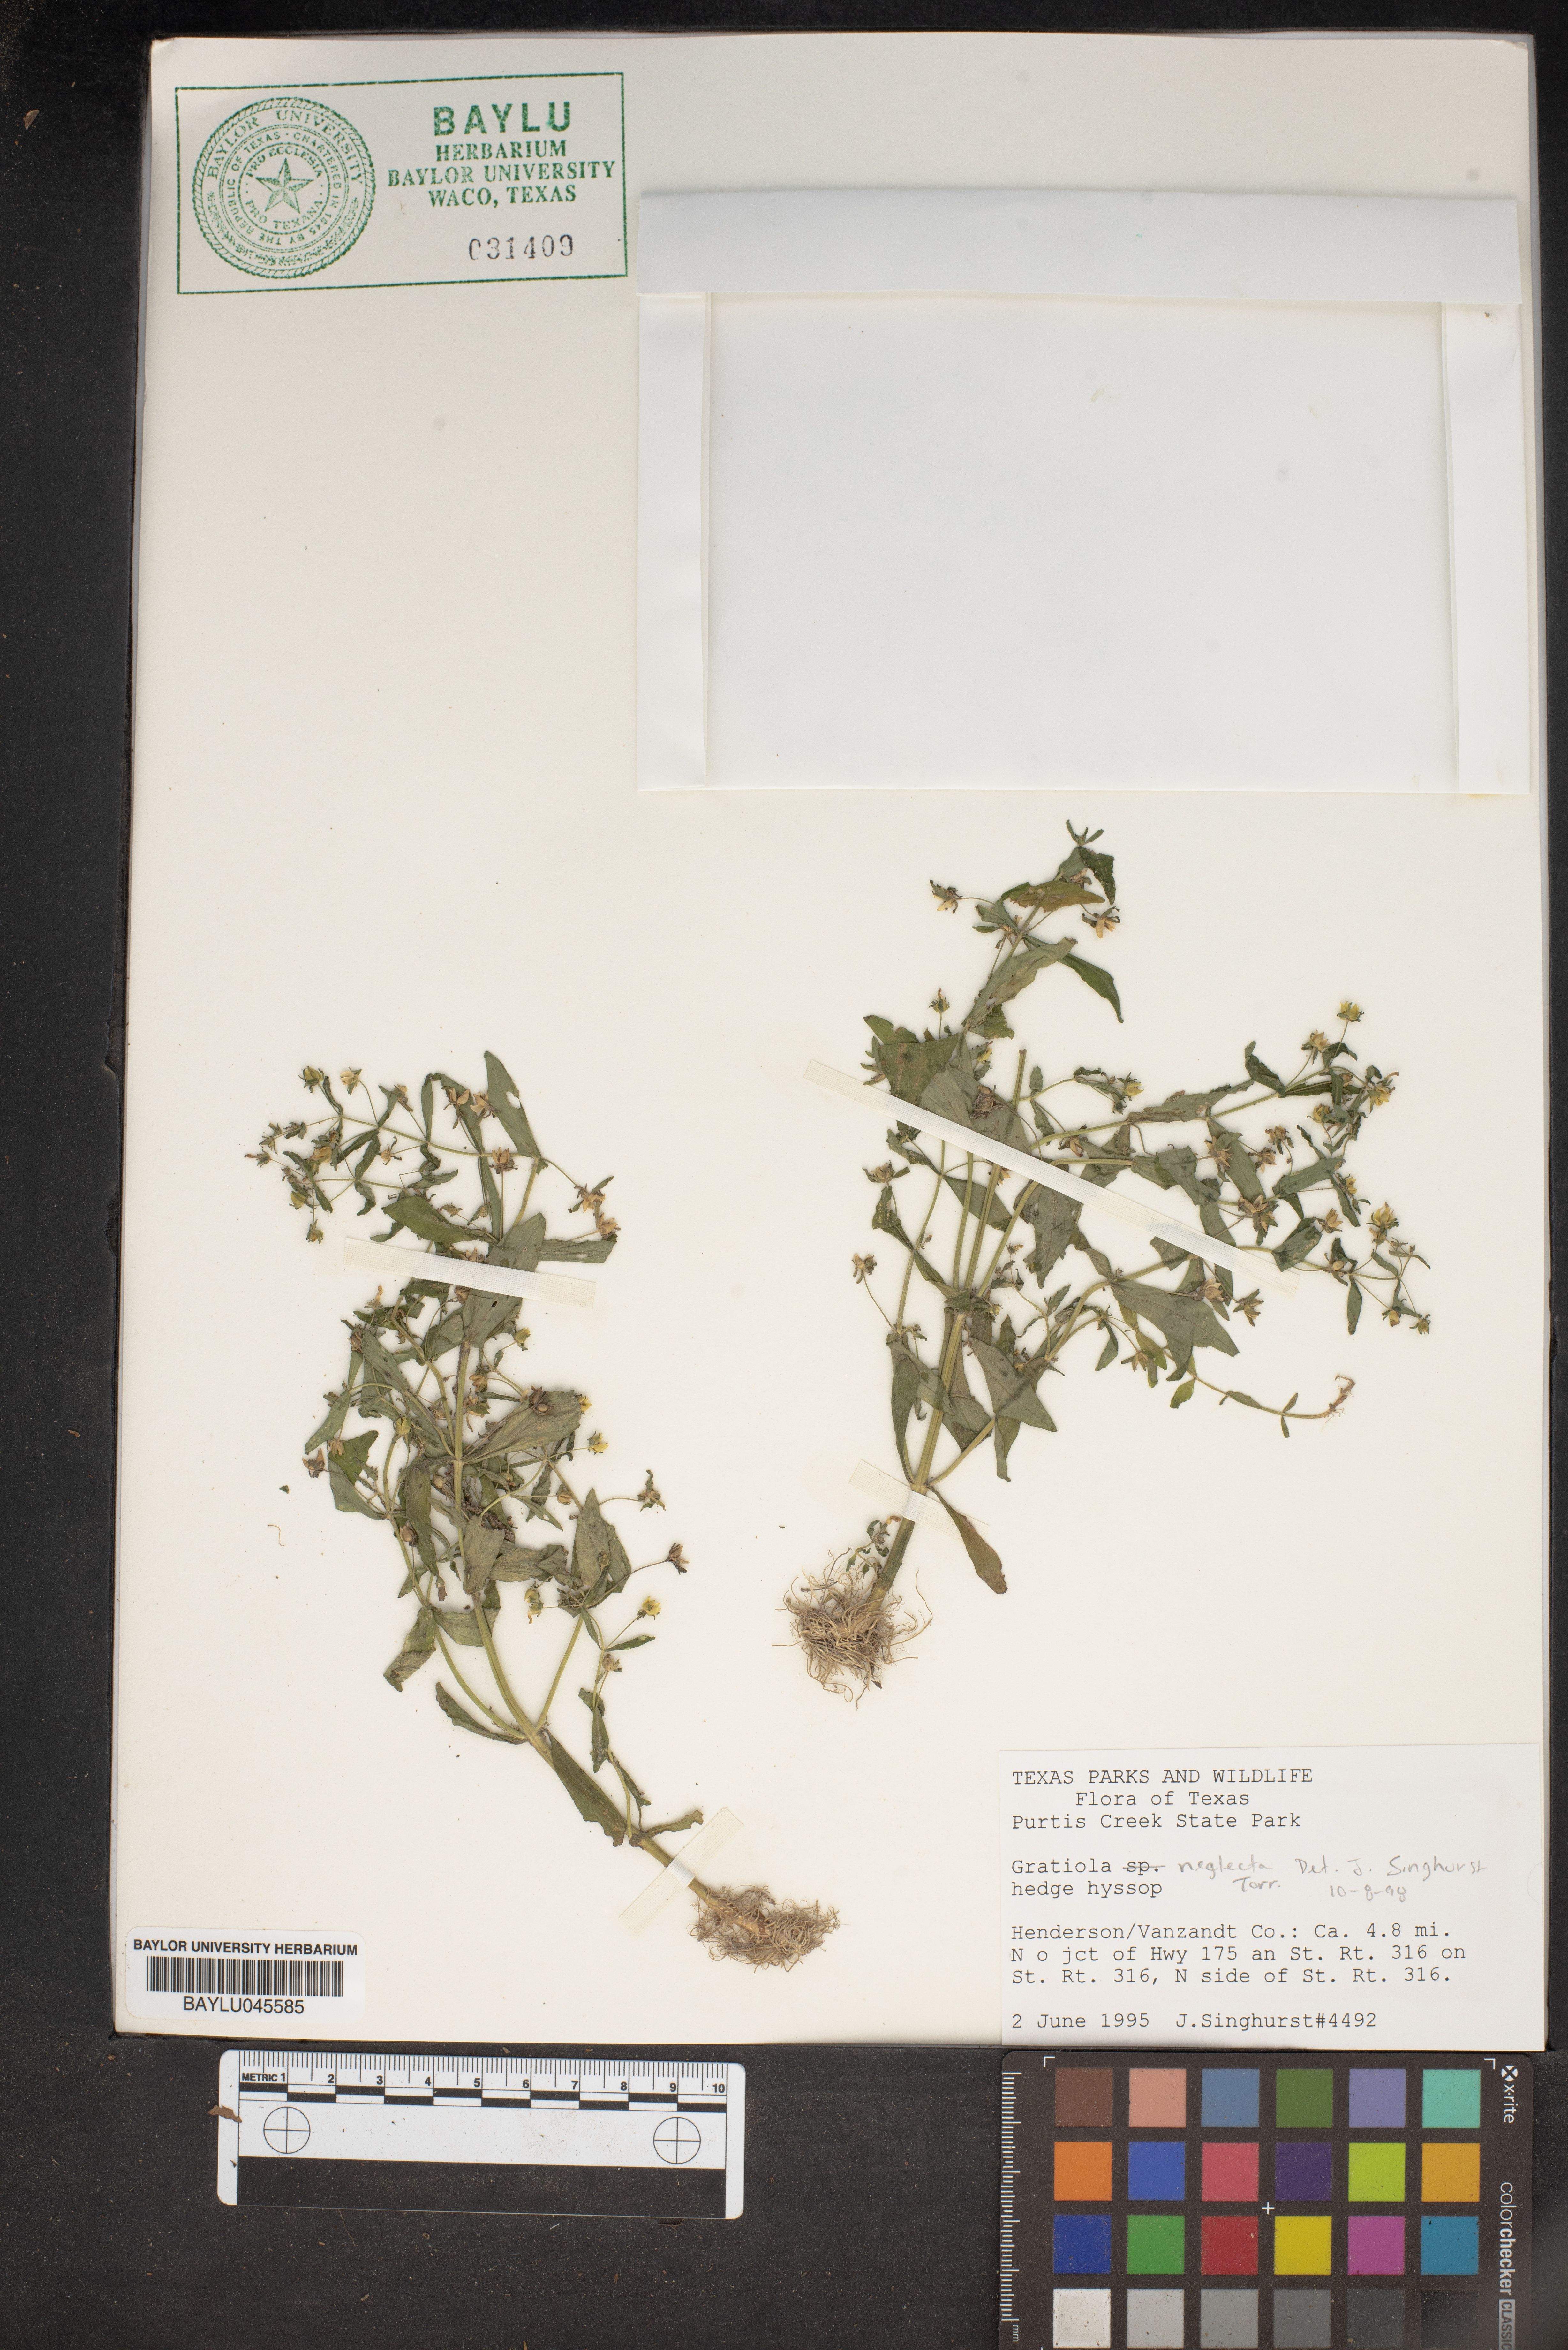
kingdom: Plantae
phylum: Tracheophyta
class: Magnoliopsida
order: Lamiales
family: Plantaginaceae
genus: Gratiola
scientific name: Gratiola neglecta
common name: American hedge-hyssop
